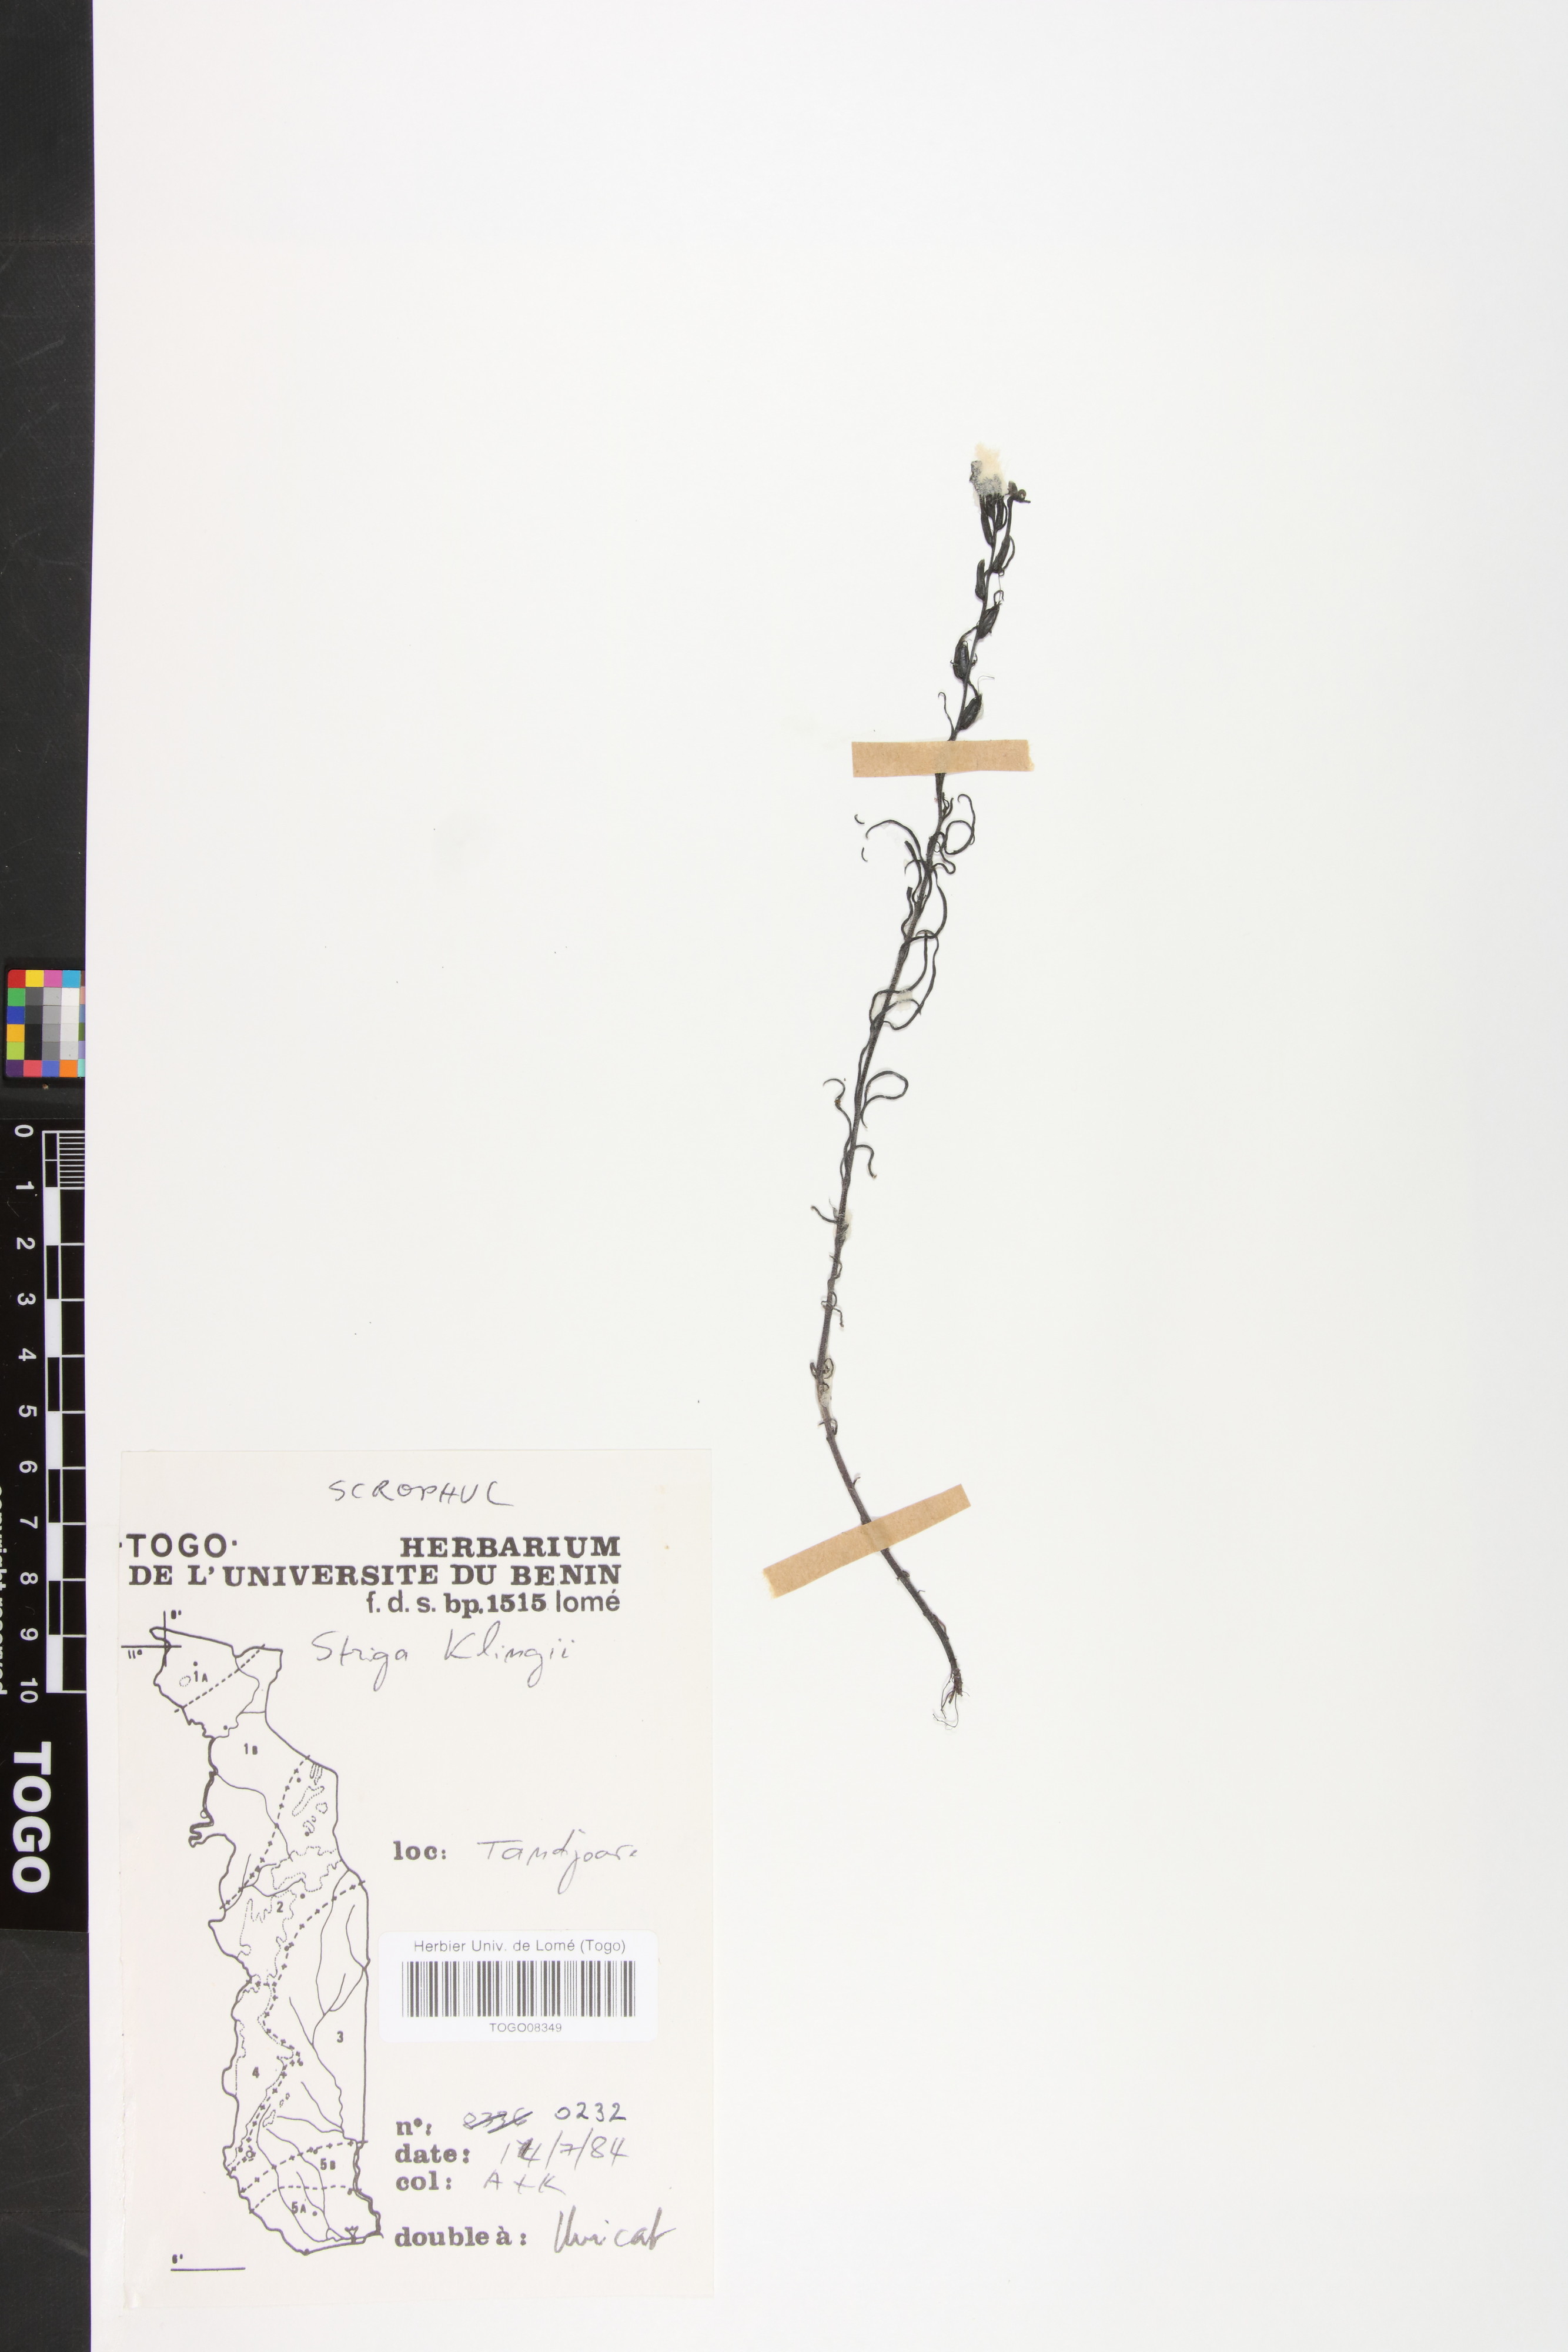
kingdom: Plantae
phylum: Tracheophyta
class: Magnoliopsida
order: Lamiales
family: Orobanchaceae
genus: Striga
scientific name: Striga klingii
